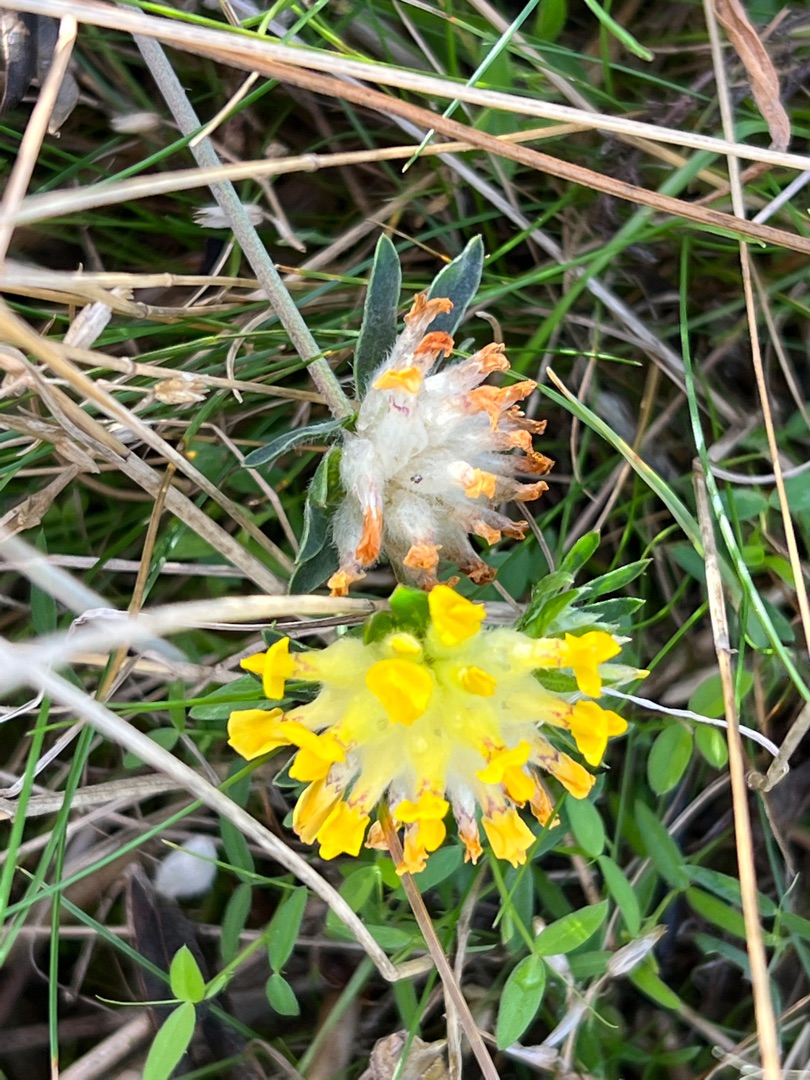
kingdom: Plantae
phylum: Tracheophyta
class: Magnoliopsida
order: Fabales
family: Fabaceae
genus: Anthyllis
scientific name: Anthyllis vulneraria
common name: Rundbælg
